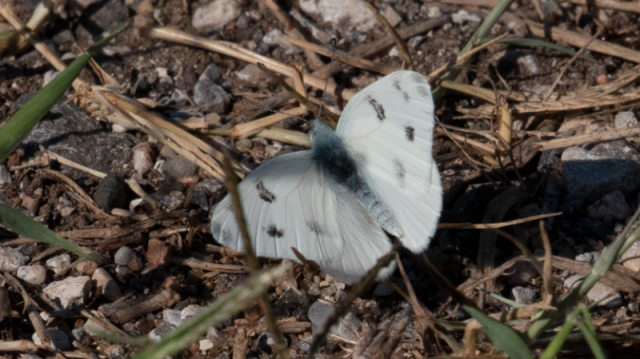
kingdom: Animalia
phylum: Arthropoda
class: Insecta
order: Lepidoptera
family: Pieridae
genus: Pontia
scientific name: Pontia protodice
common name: Checkered White
